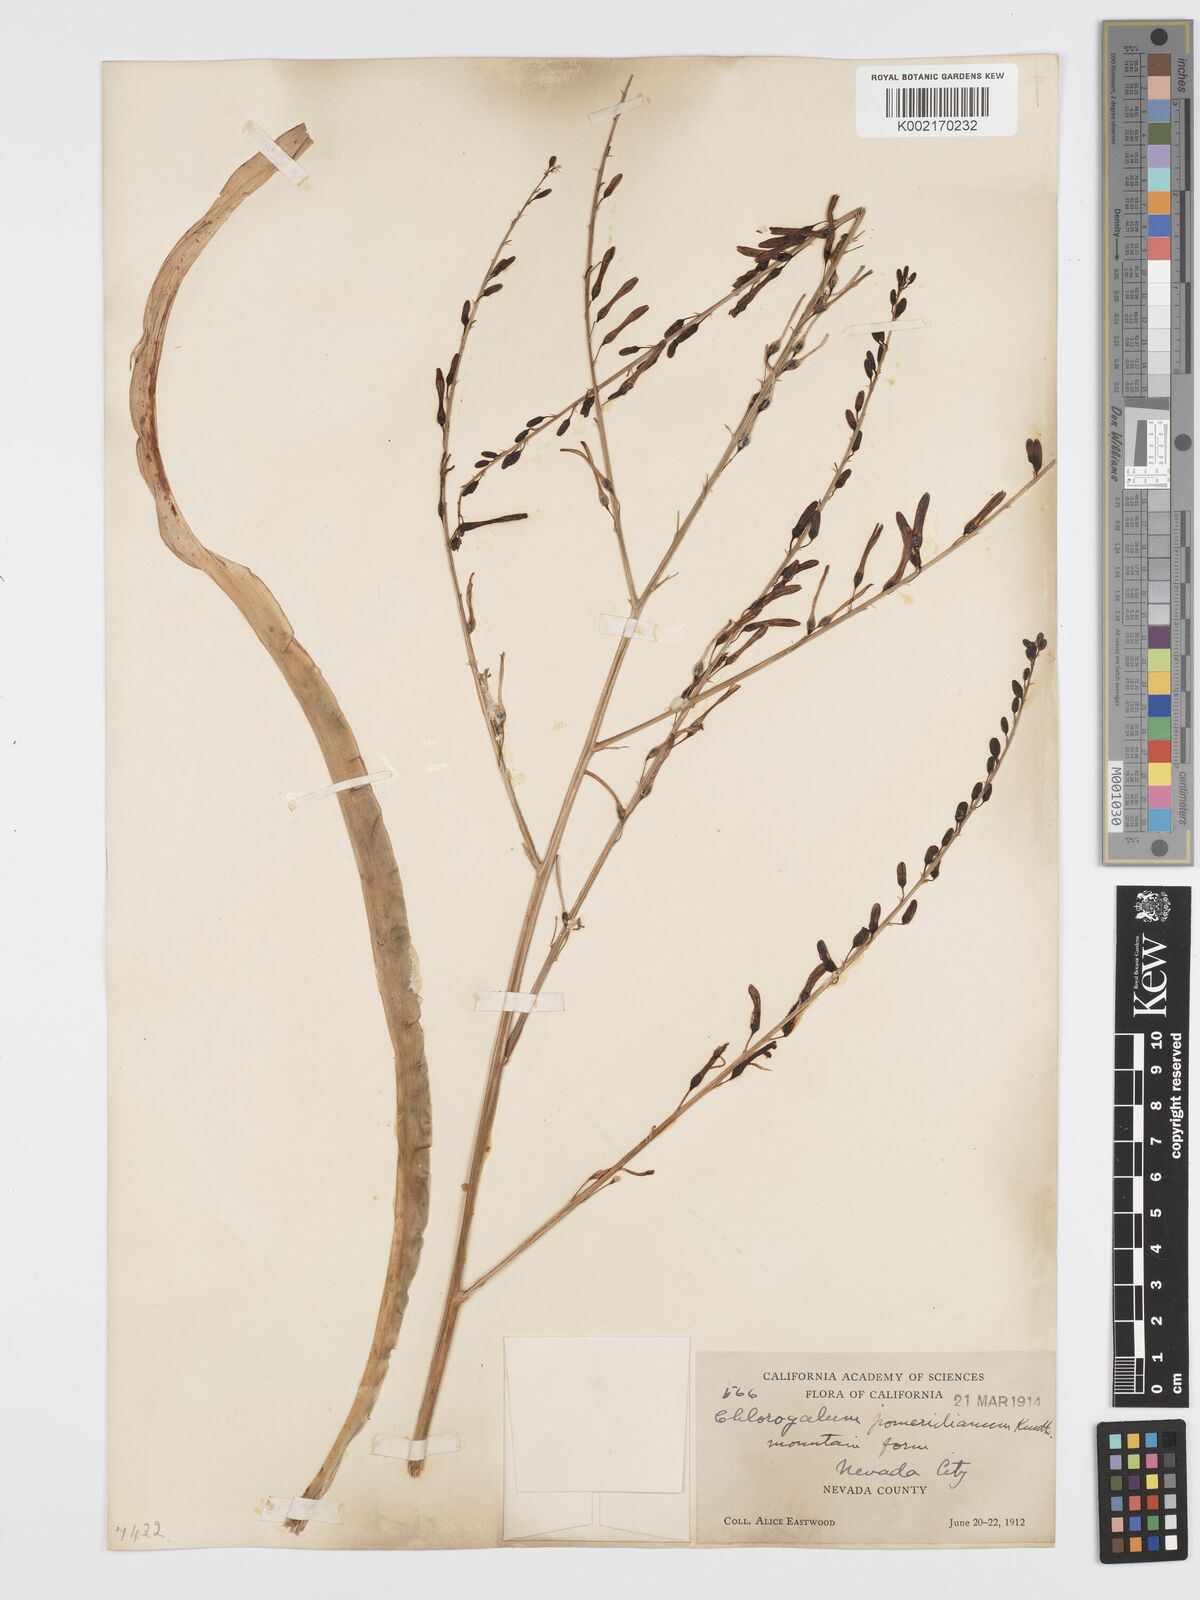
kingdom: Plantae
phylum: Tracheophyta
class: Liliopsida
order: Asparagales
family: Asparagaceae
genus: Chlorogalum
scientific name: Chlorogalum pomeridianum
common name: Amole
